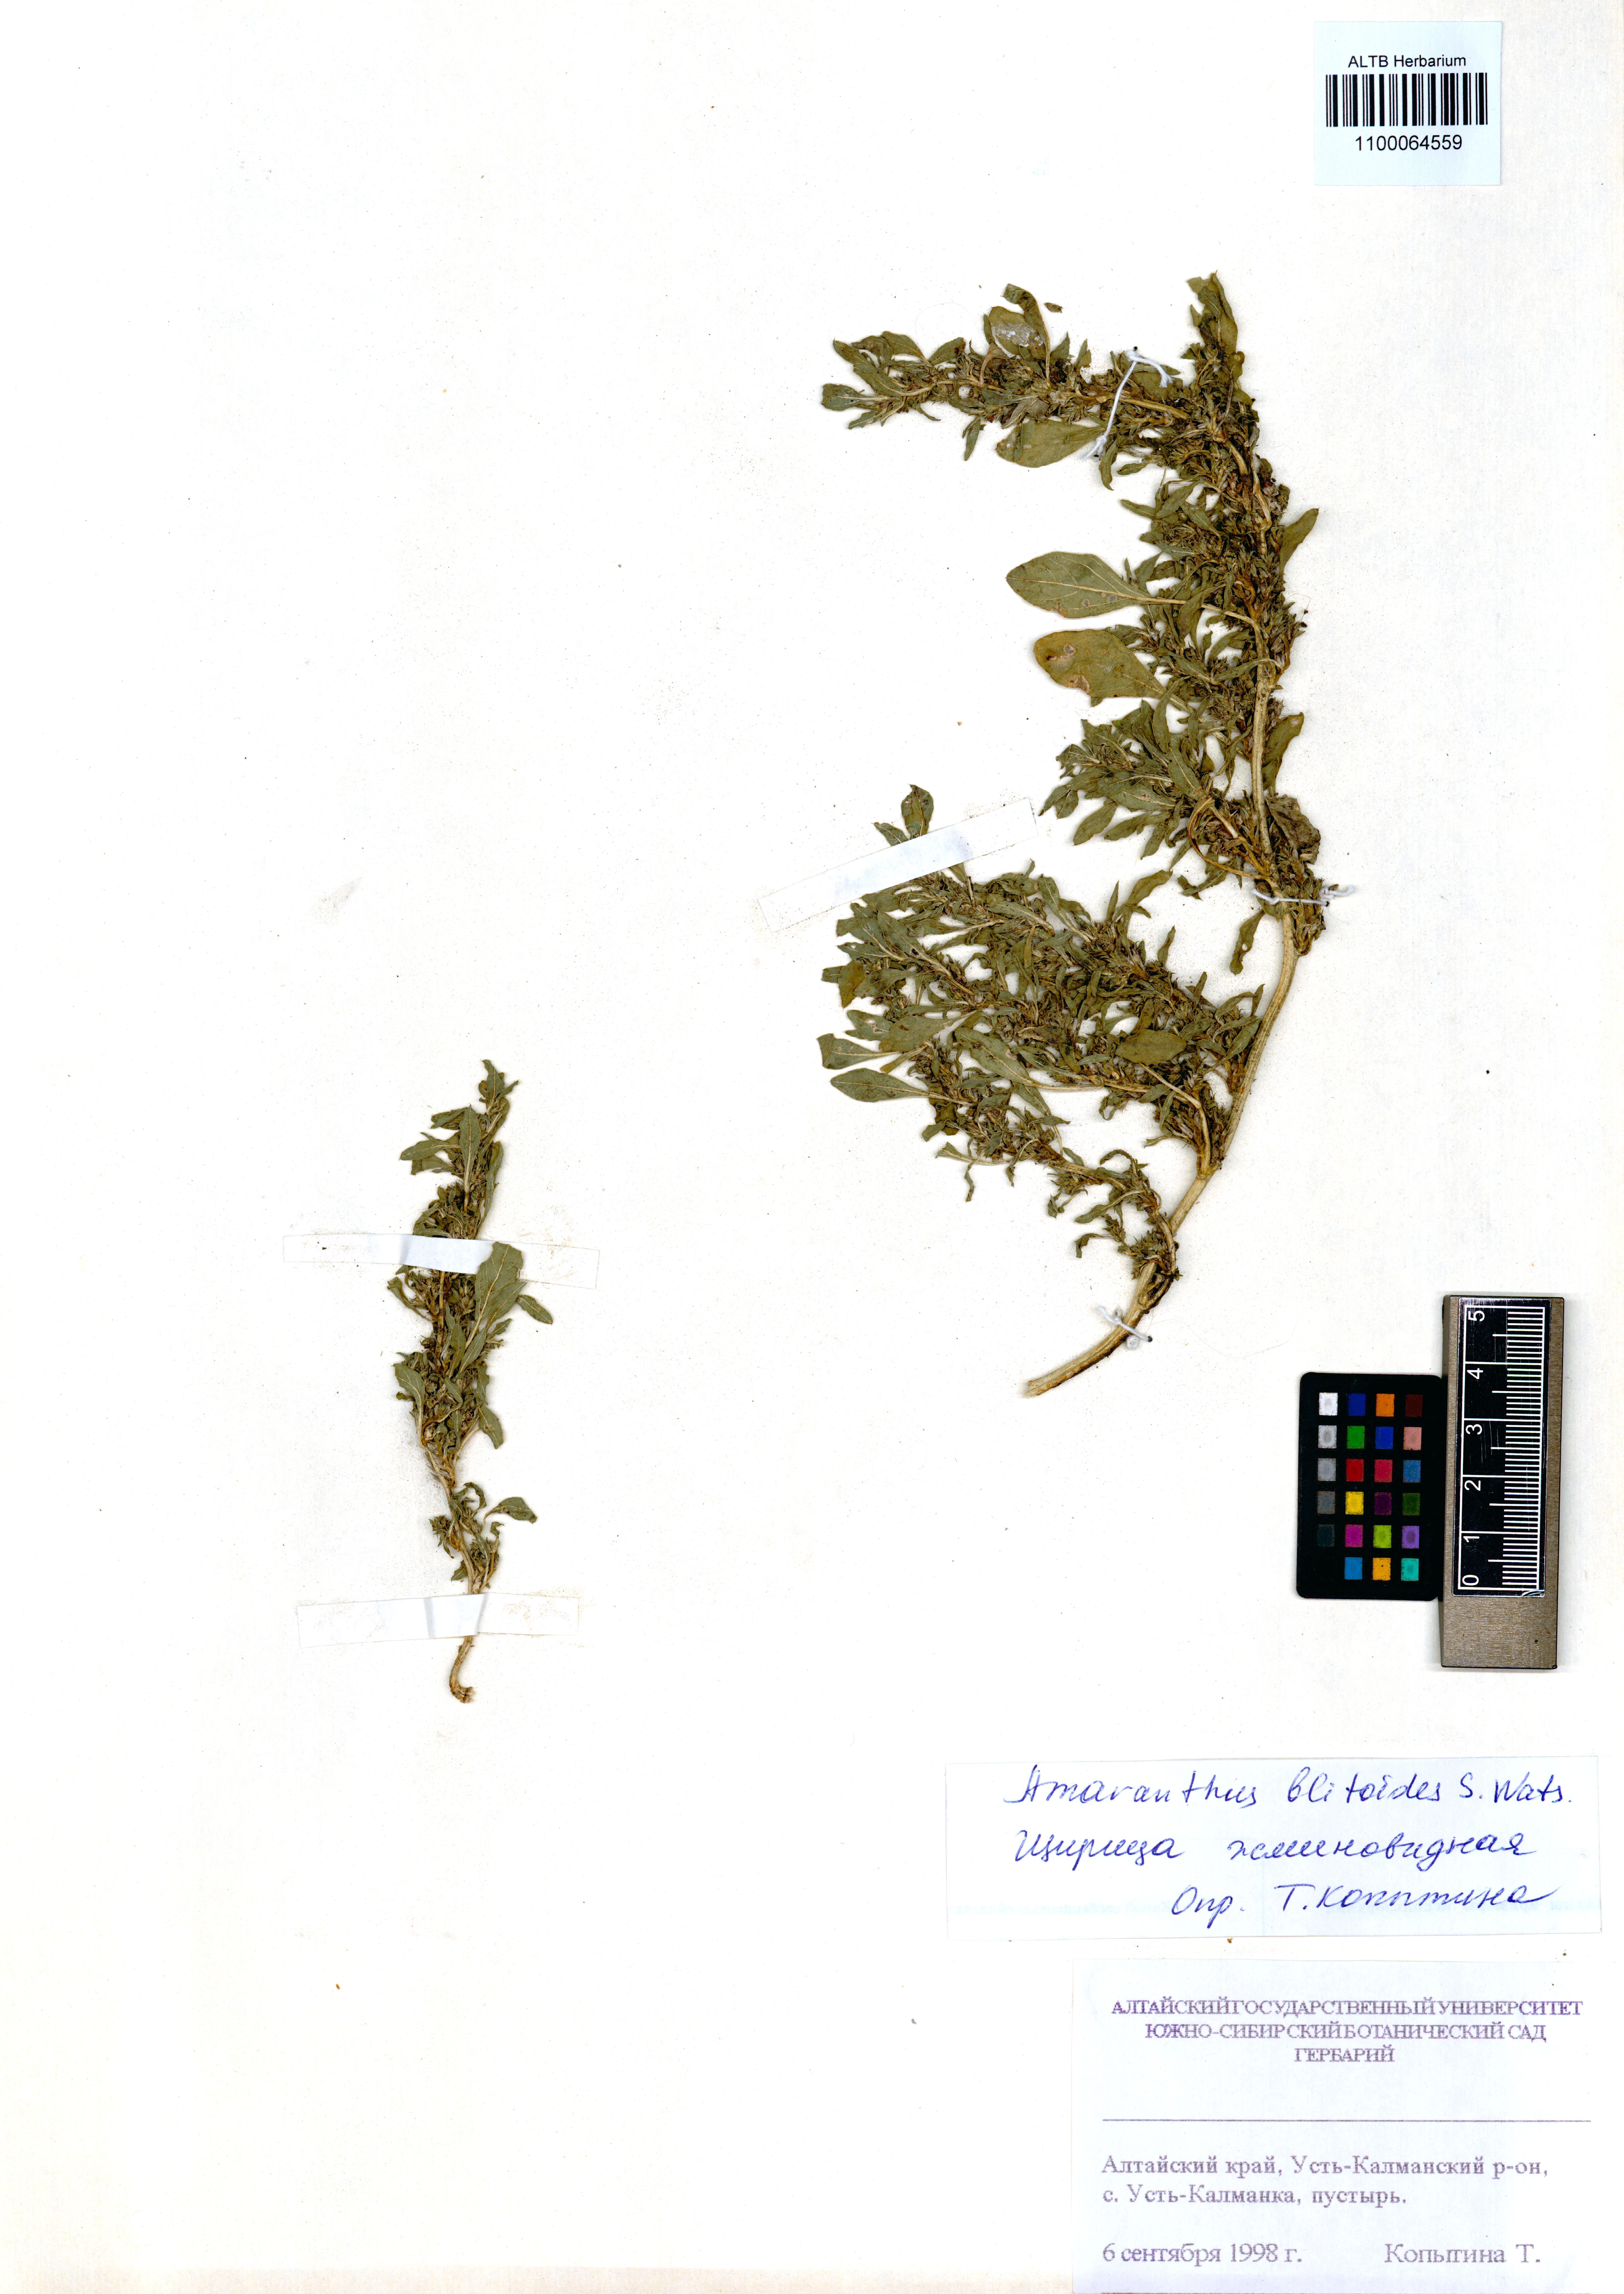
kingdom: Plantae
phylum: Tracheophyta
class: Magnoliopsida
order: Caryophyllales
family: Amaranthaceae
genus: Amaranthus
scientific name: Amaranthus blitoides
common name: Prostrate pigweed
